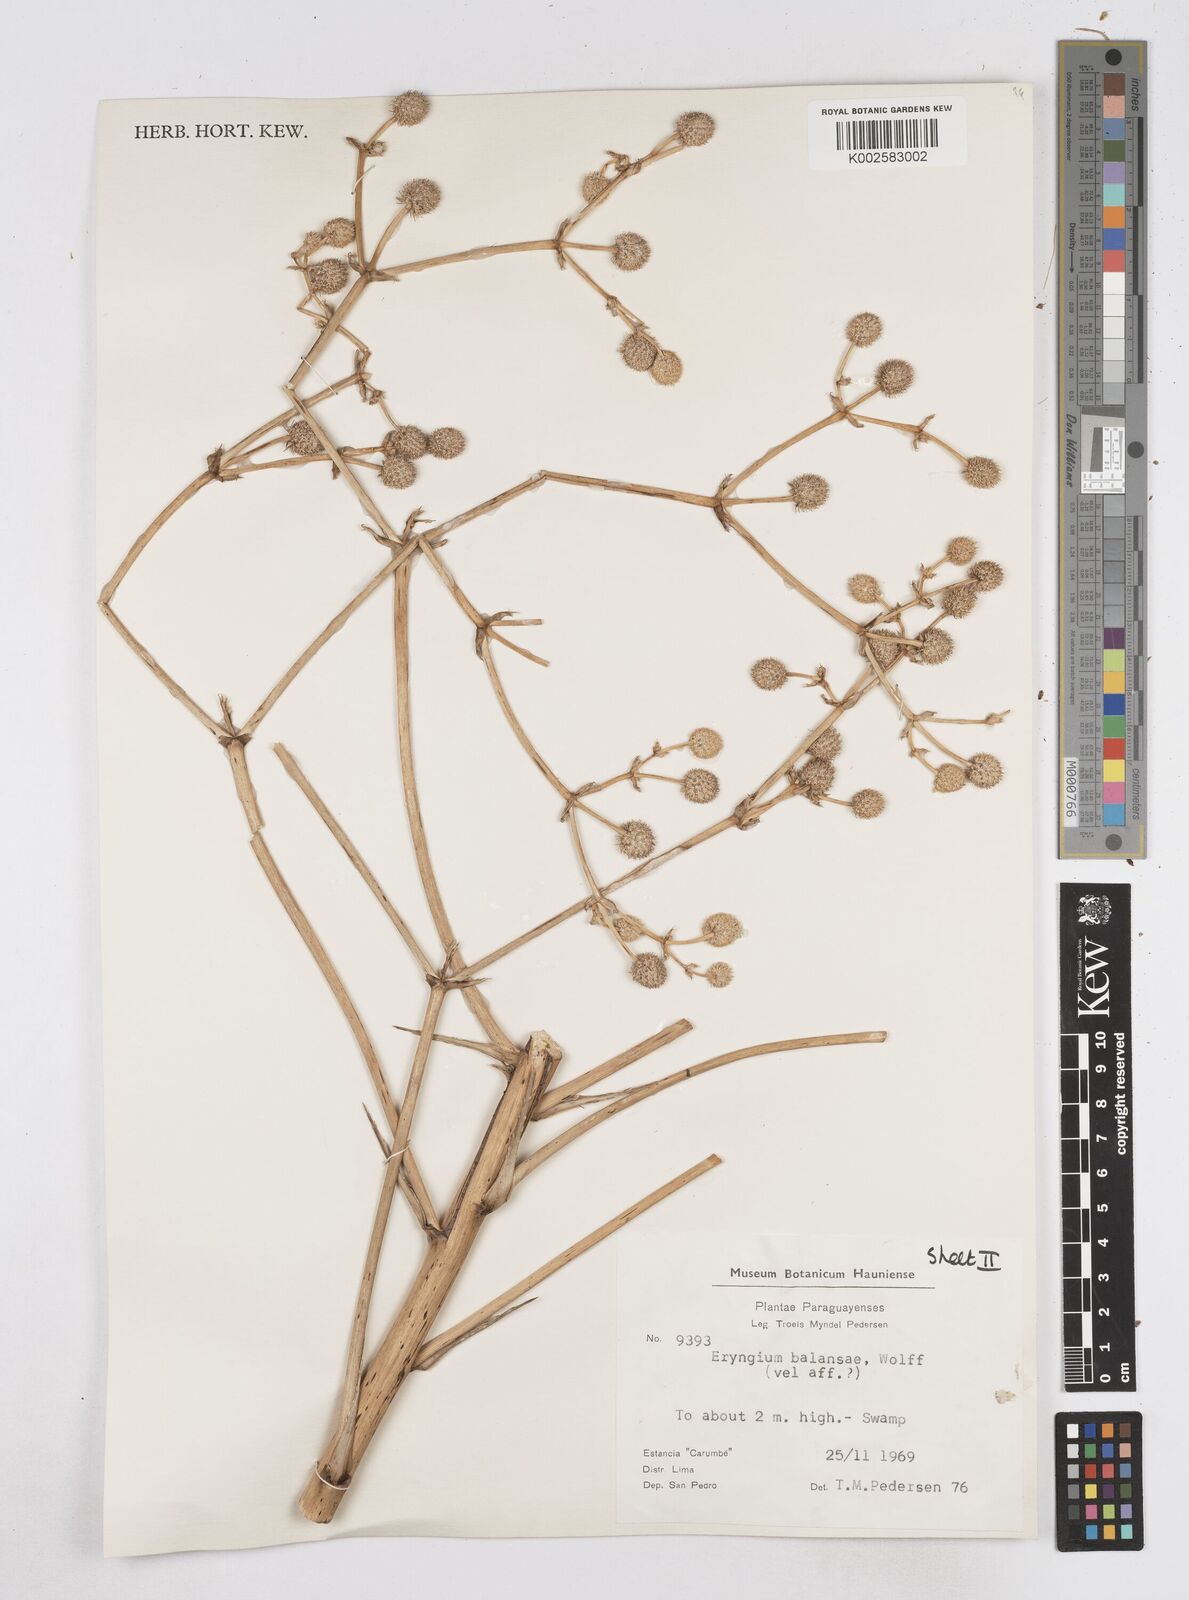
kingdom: Plantae
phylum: Tracheophyta
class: Magnoliopsida
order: Apiales
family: Apiaceae
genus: Eryngium
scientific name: Eryngium balansae
